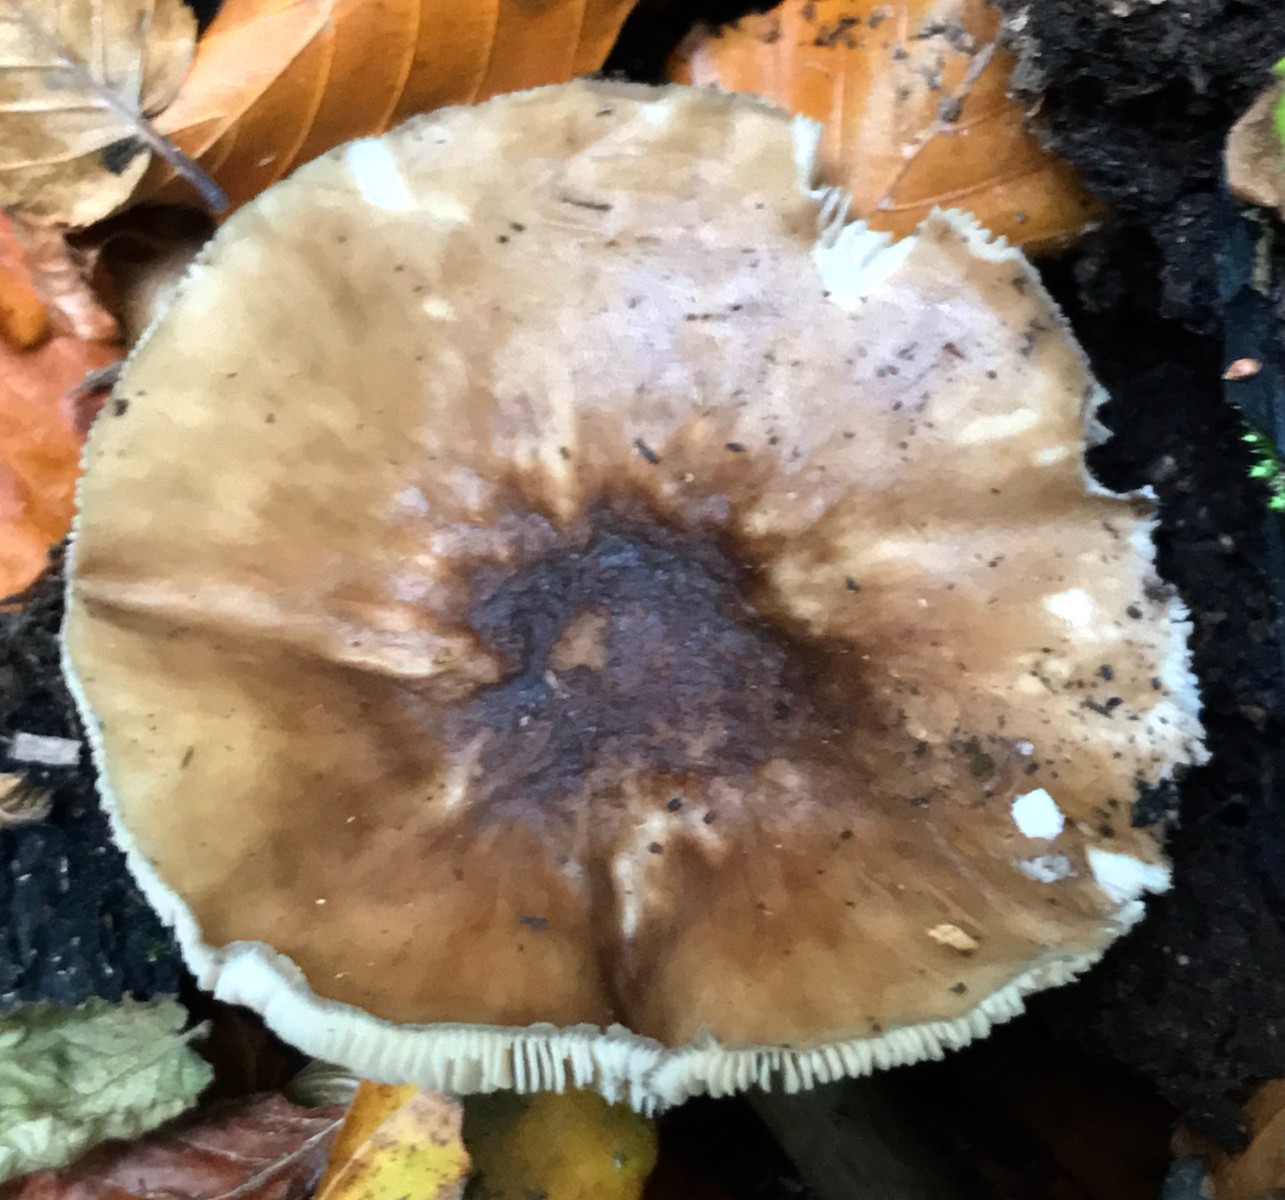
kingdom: Fungi
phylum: Basidiomycota
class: Agaricomycetes
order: Agaricales
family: Pluteaceae
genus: Pluteus
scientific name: Pluteus cervinus
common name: sodfarvet skærmhat
